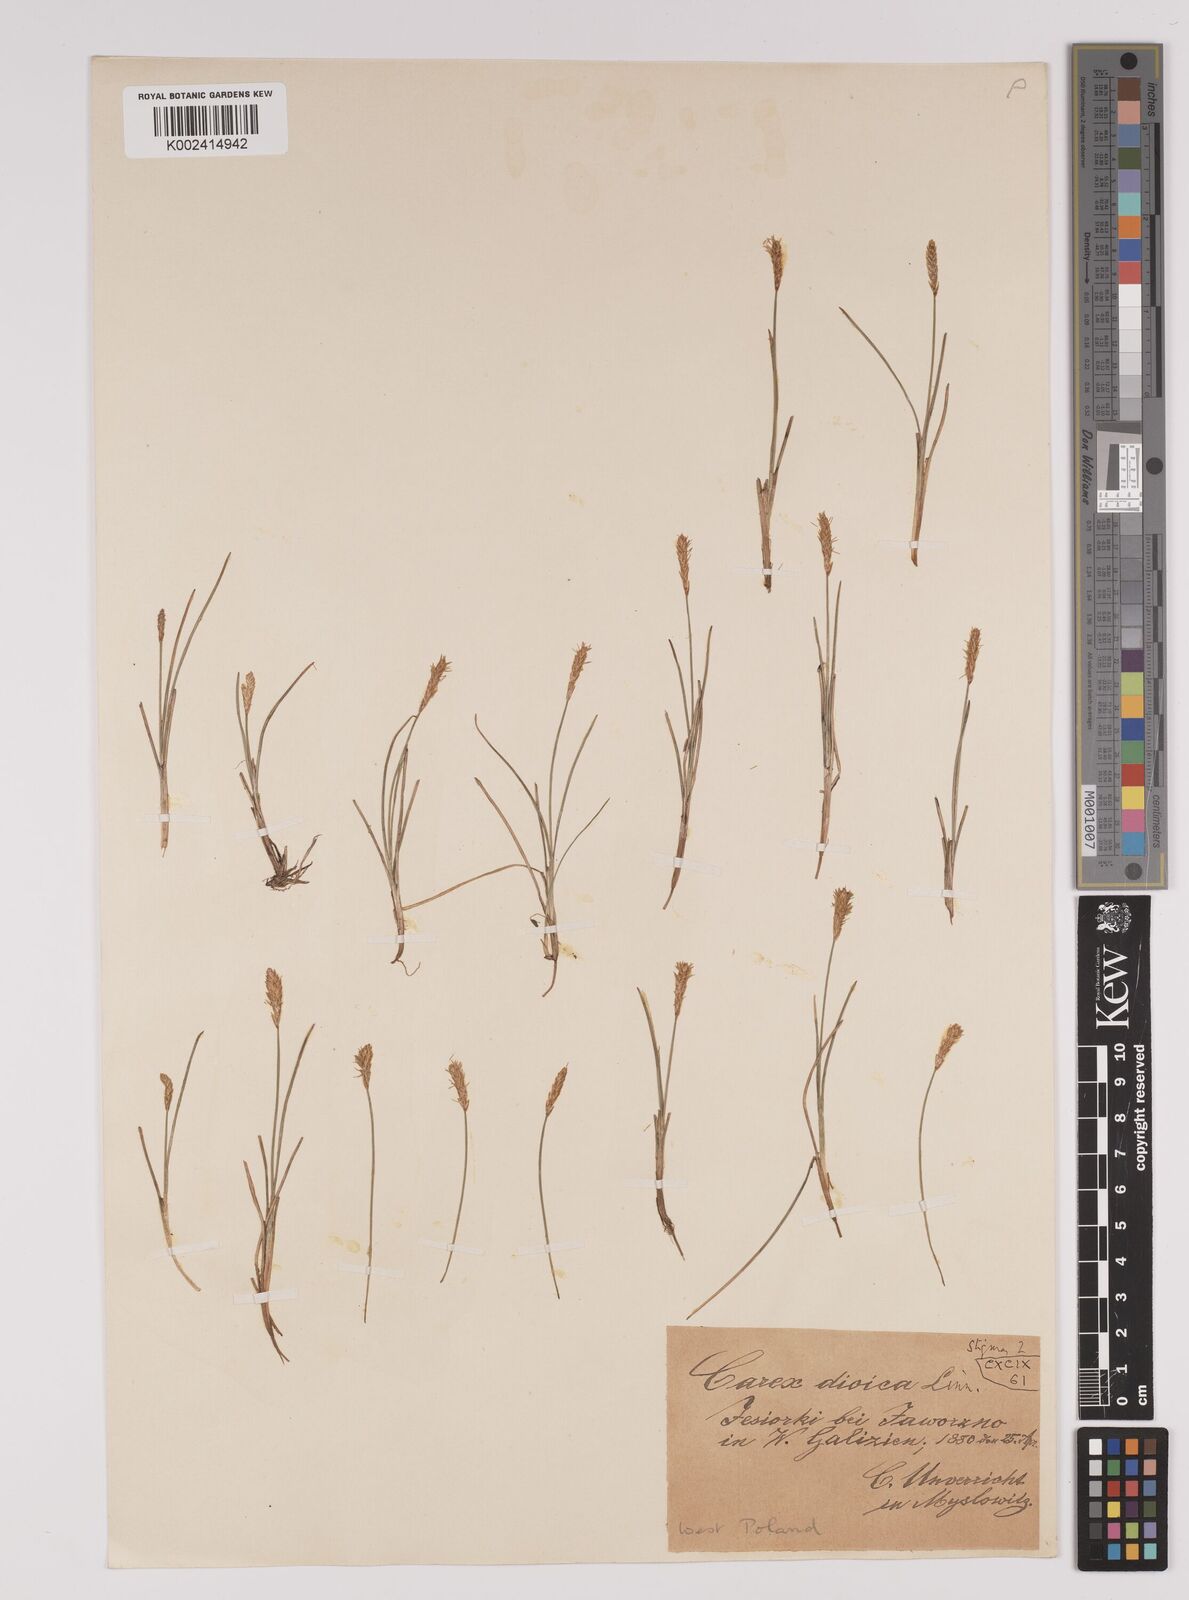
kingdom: Plantae
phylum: Tracheophyta
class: Liliopsida
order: Poales
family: Cyperaceae
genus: Carex
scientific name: Carex dioica
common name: Dioecious sedge
